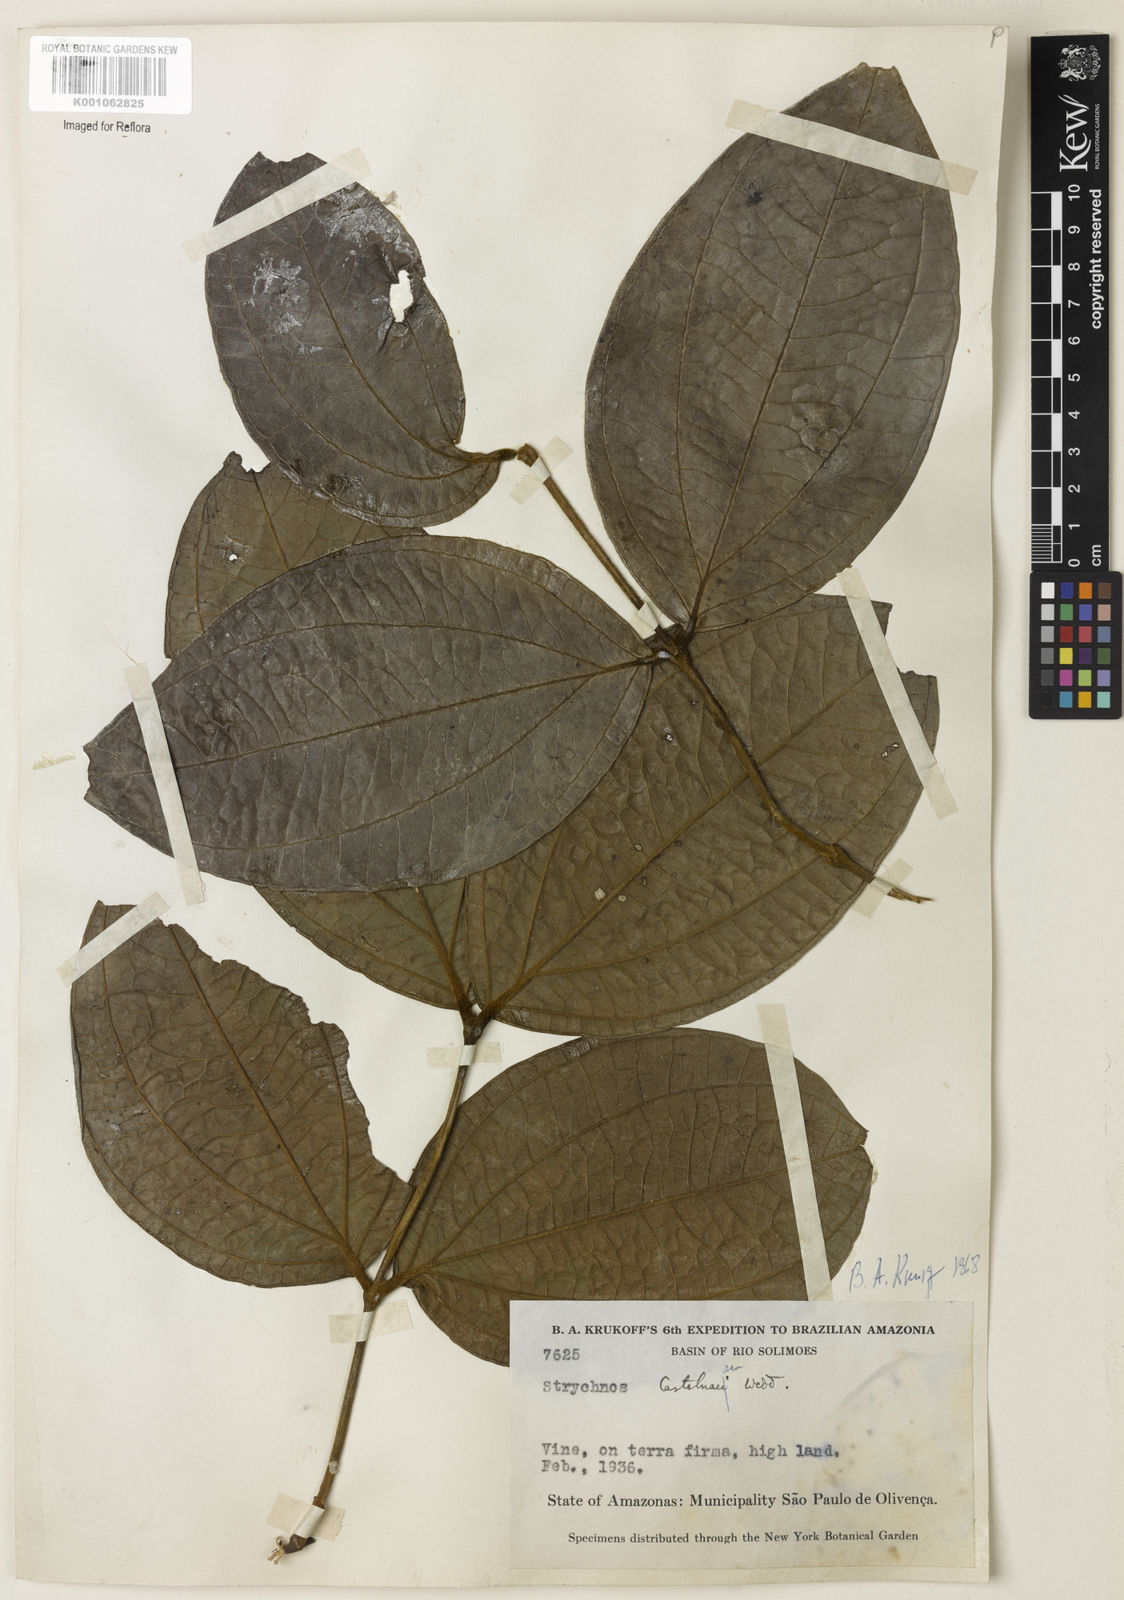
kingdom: Plantae
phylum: Tracheophyta
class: Magnoliopsida
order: Gentianales
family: Loganiaceae
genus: Strychnos
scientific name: Strychnos
